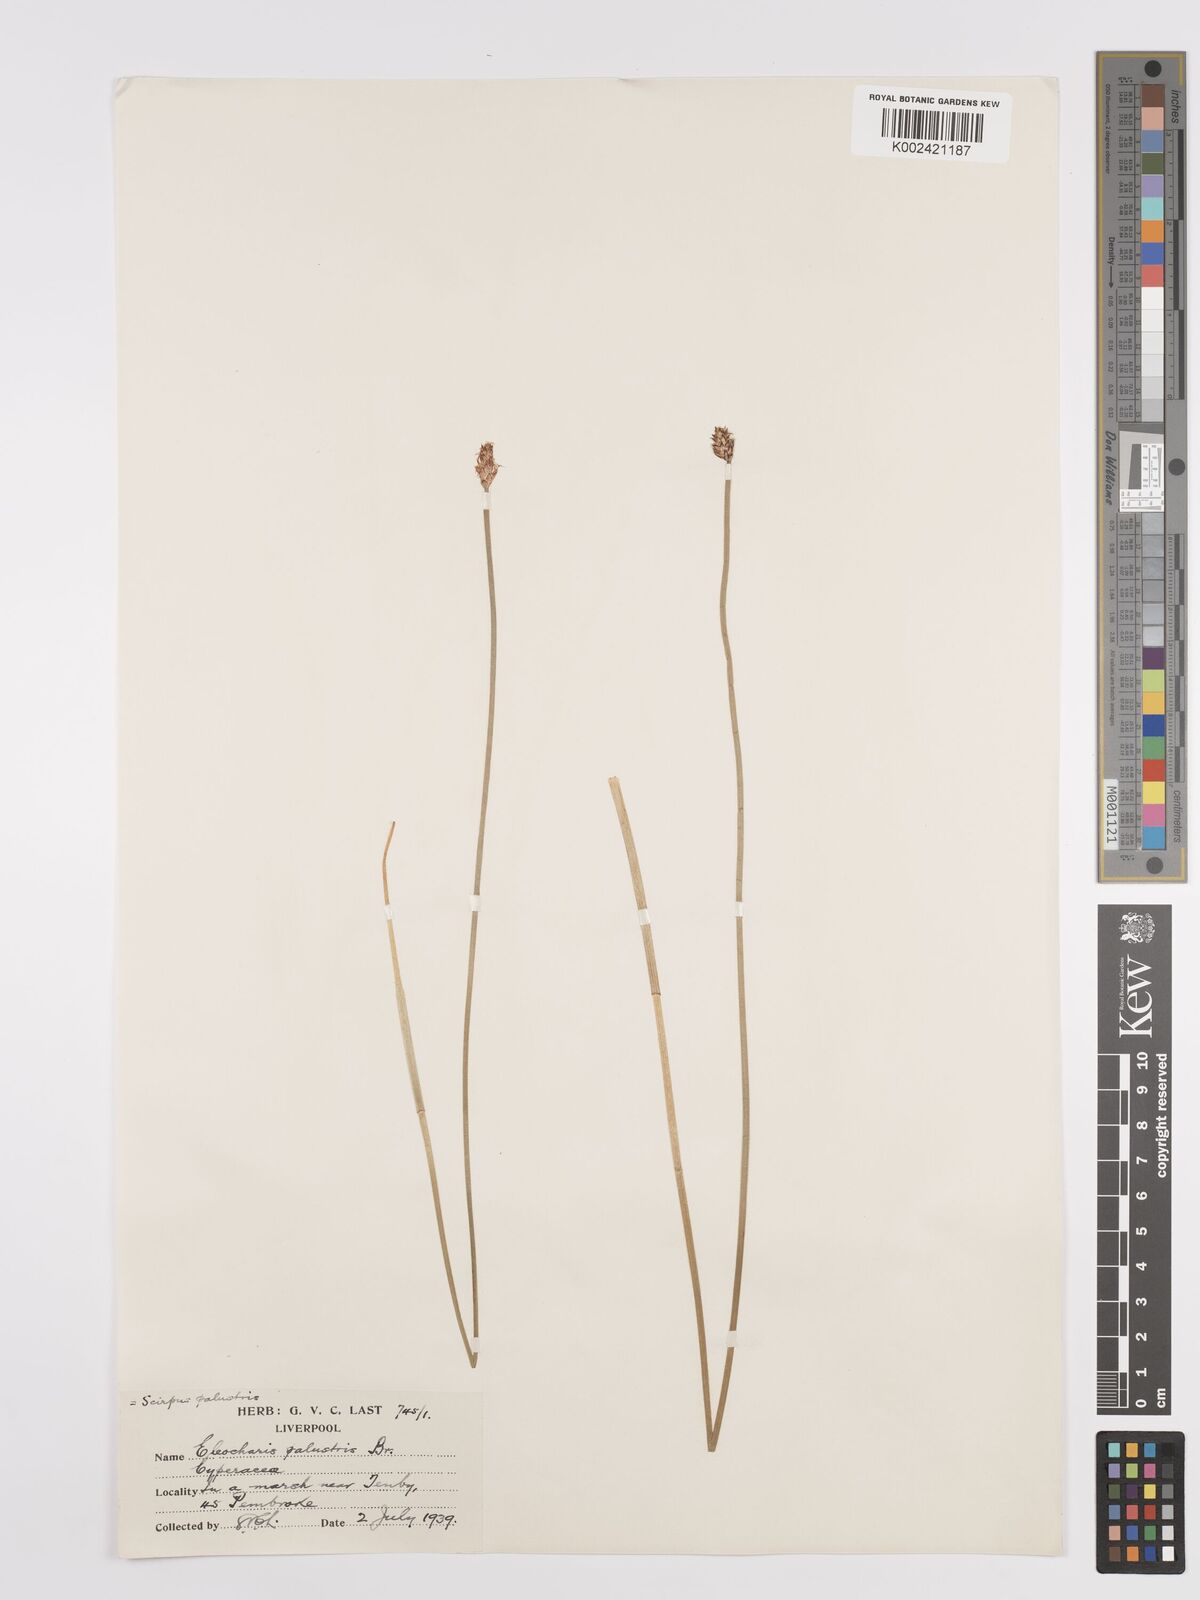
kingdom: Plantae
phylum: Tracheophyta
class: Liliopsida
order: Poales
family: Cyperaceae
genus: Eleocharis
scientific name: Eleocharis palustris
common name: Common spike-rush
